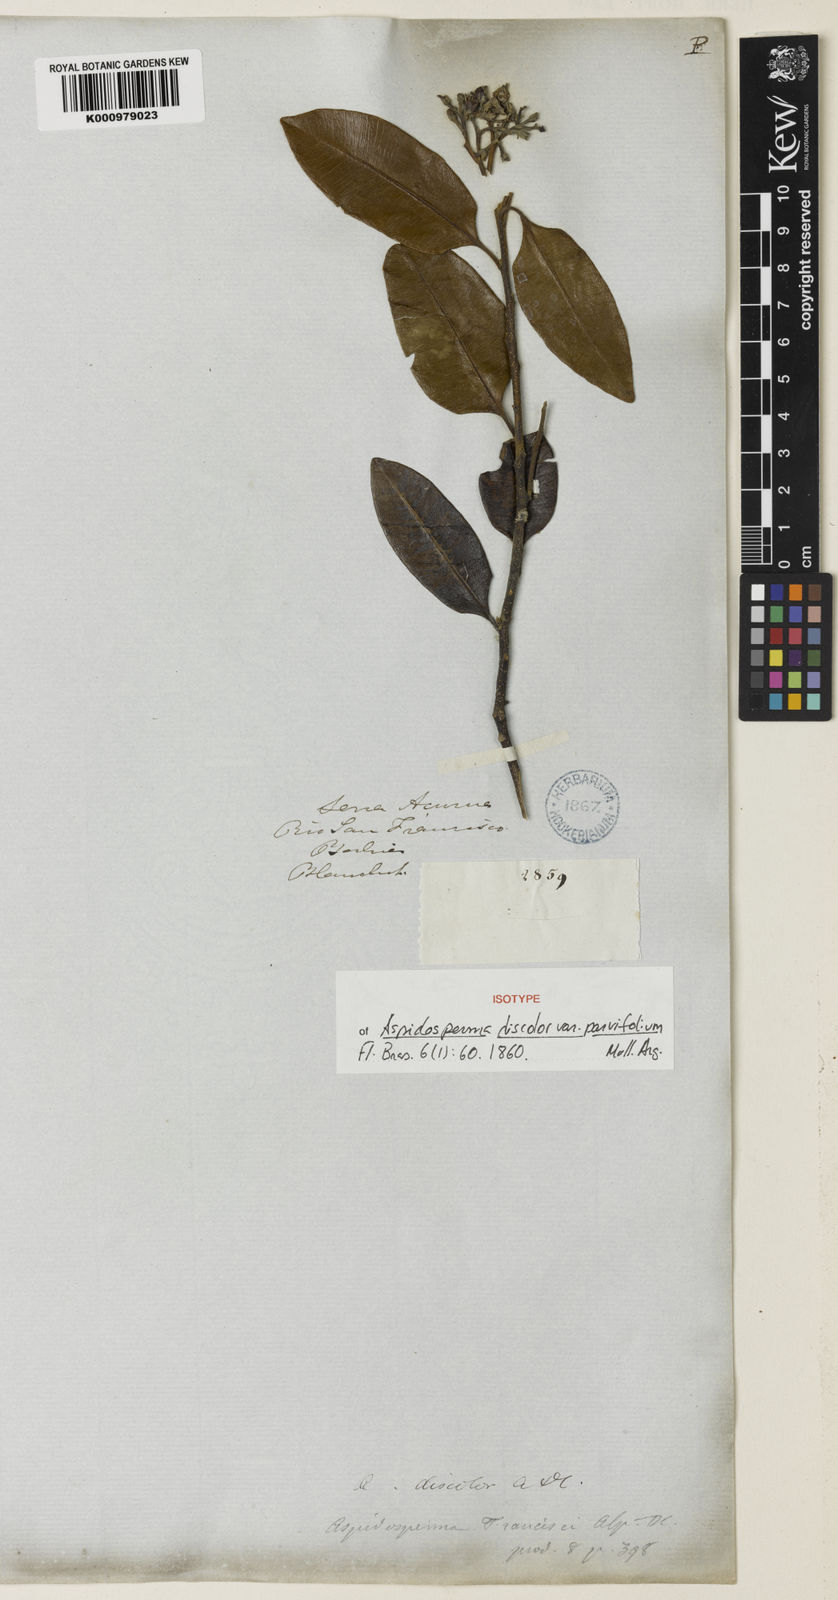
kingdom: Plantae
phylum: Tracheophyta
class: Magnoliopsida
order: Gentianales
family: Apocynaceae
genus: Aspidosperma
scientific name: Aspidosperma discolor
